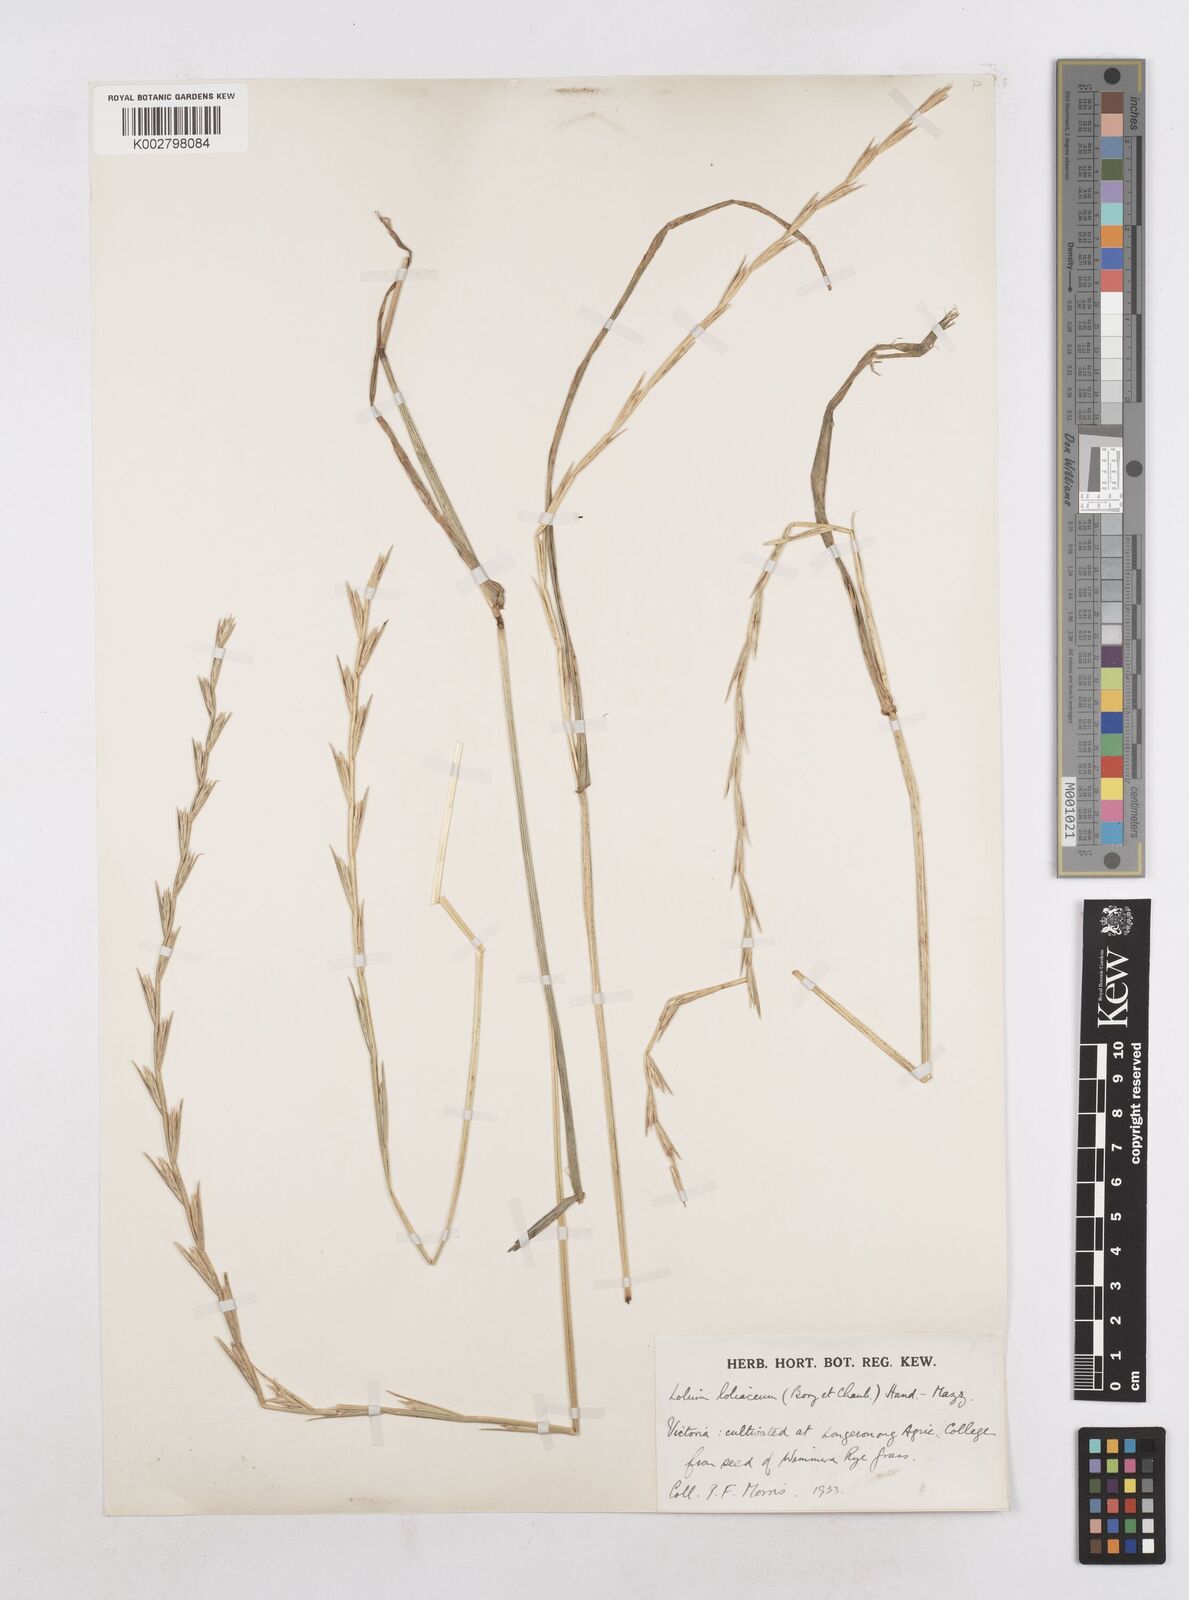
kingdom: Plantae
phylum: Tracheophyta
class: Liliopsida
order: Poales
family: Poaceae
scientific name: Poaceae
